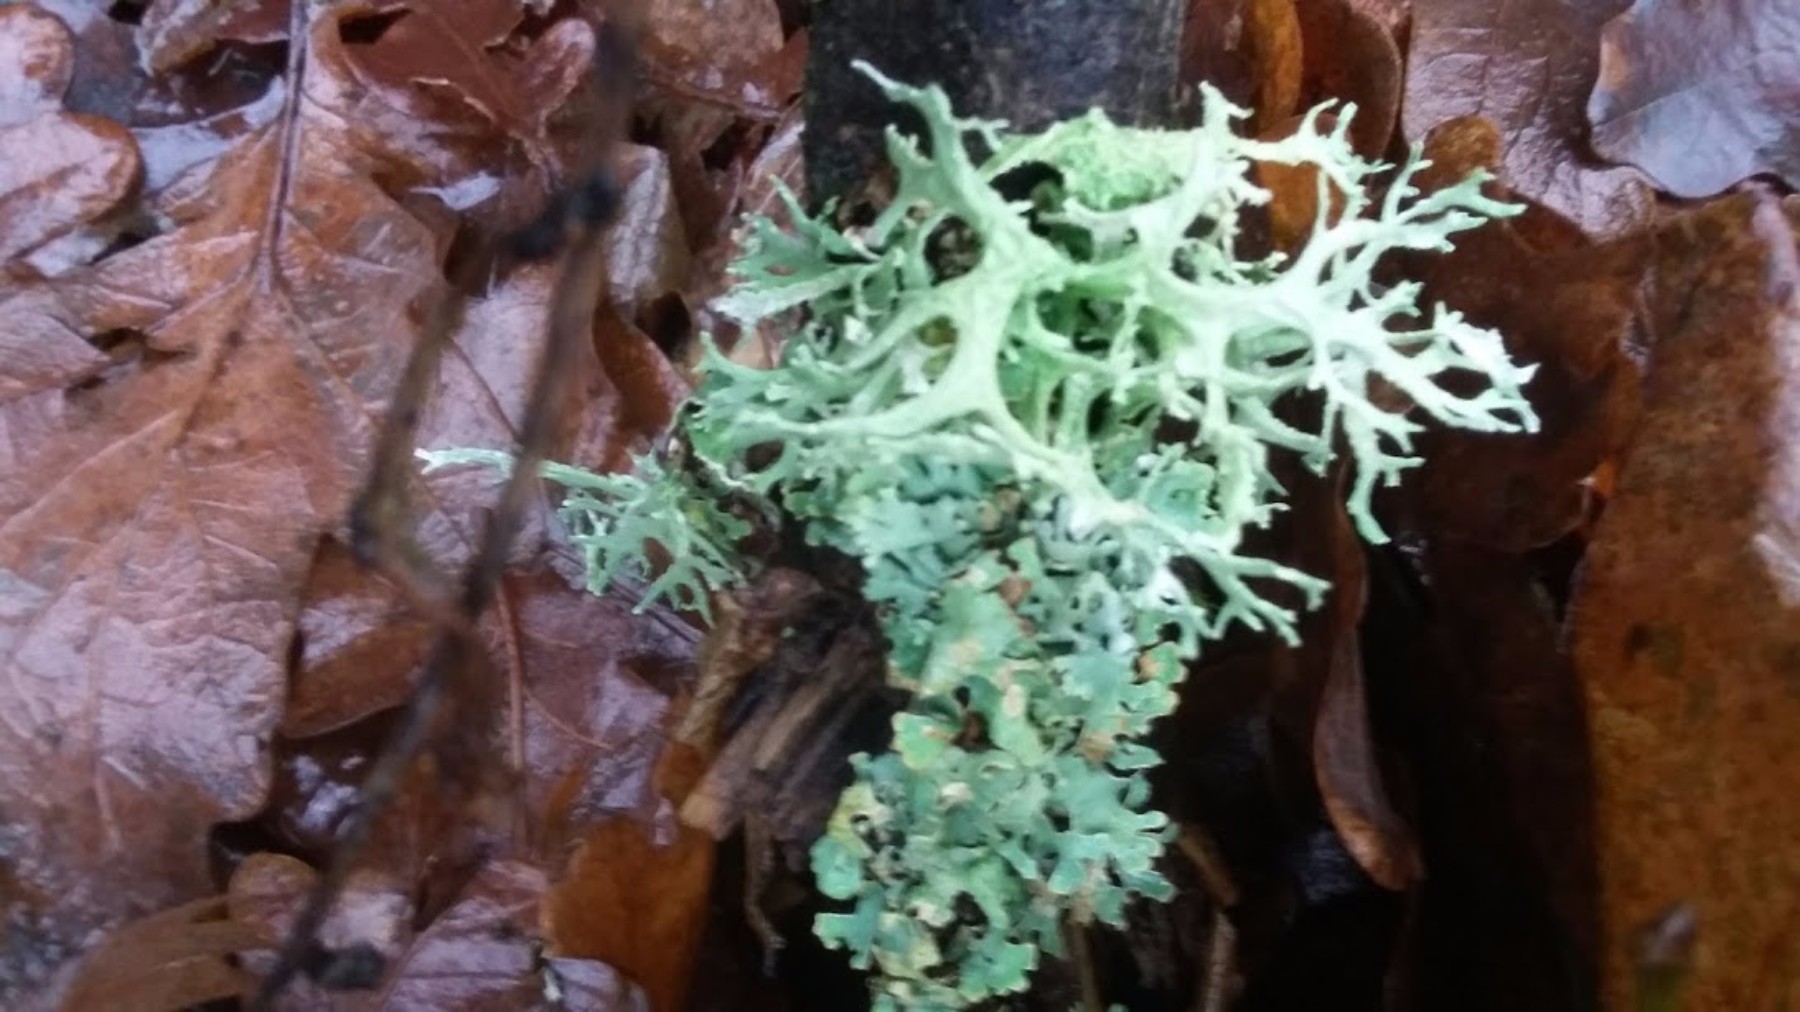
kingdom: Fungi
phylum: Ascomycota
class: Lecanoromycetes
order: Lecanorales
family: Parmeliaceae
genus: Evernia
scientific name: Evernia prunastri
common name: almindelig slåenlav
